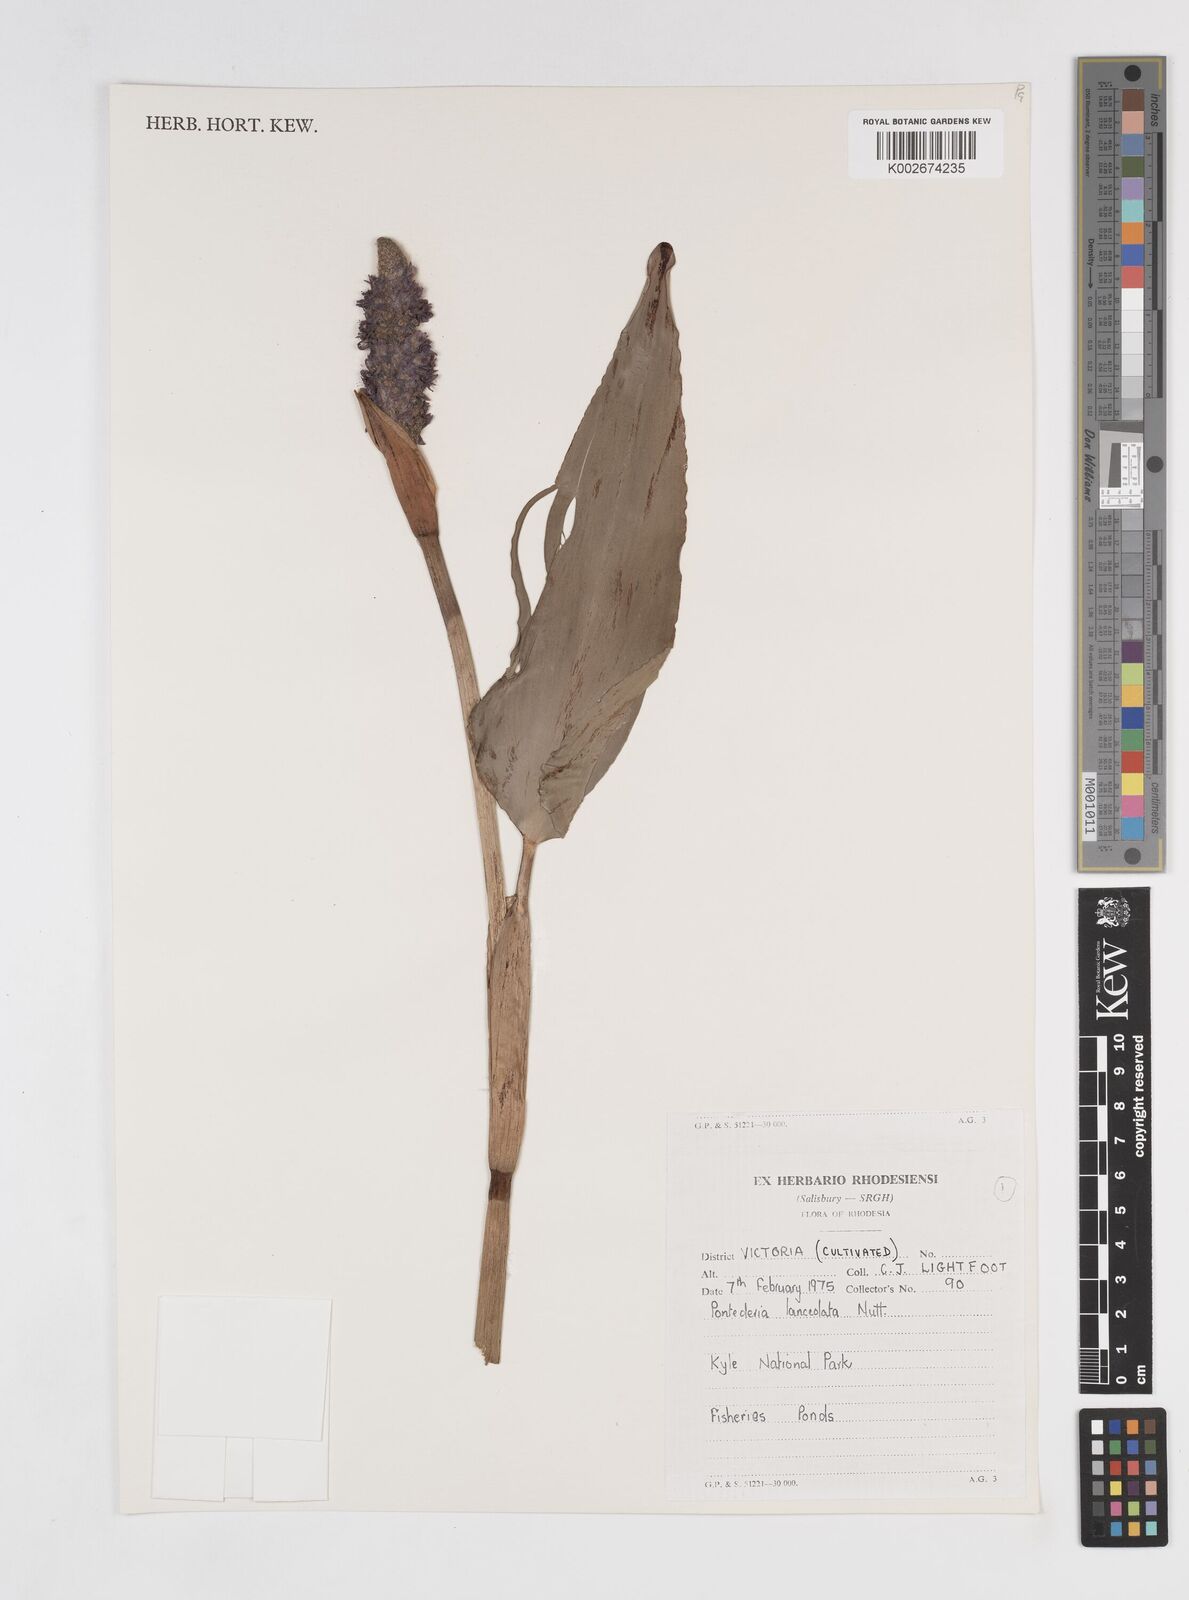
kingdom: Plantae
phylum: Tracheophyta
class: Liliopsida
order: Commelinales
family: Pontederiaceae
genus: Pontederia
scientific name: Pontederia
